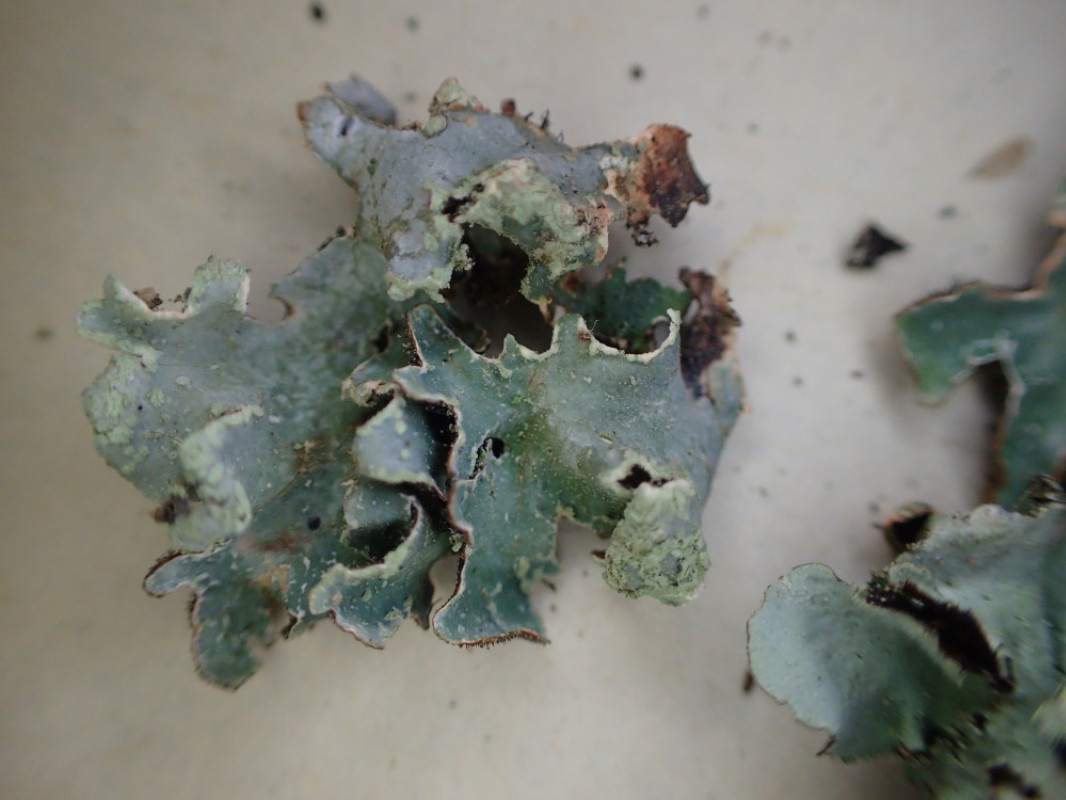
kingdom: Fungi
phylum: Ascomycota
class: Lecanoromycetes
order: Lecanorales
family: Parmeliaceae
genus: Parmelia
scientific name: Parmelia sulcata
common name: rynket skållav
